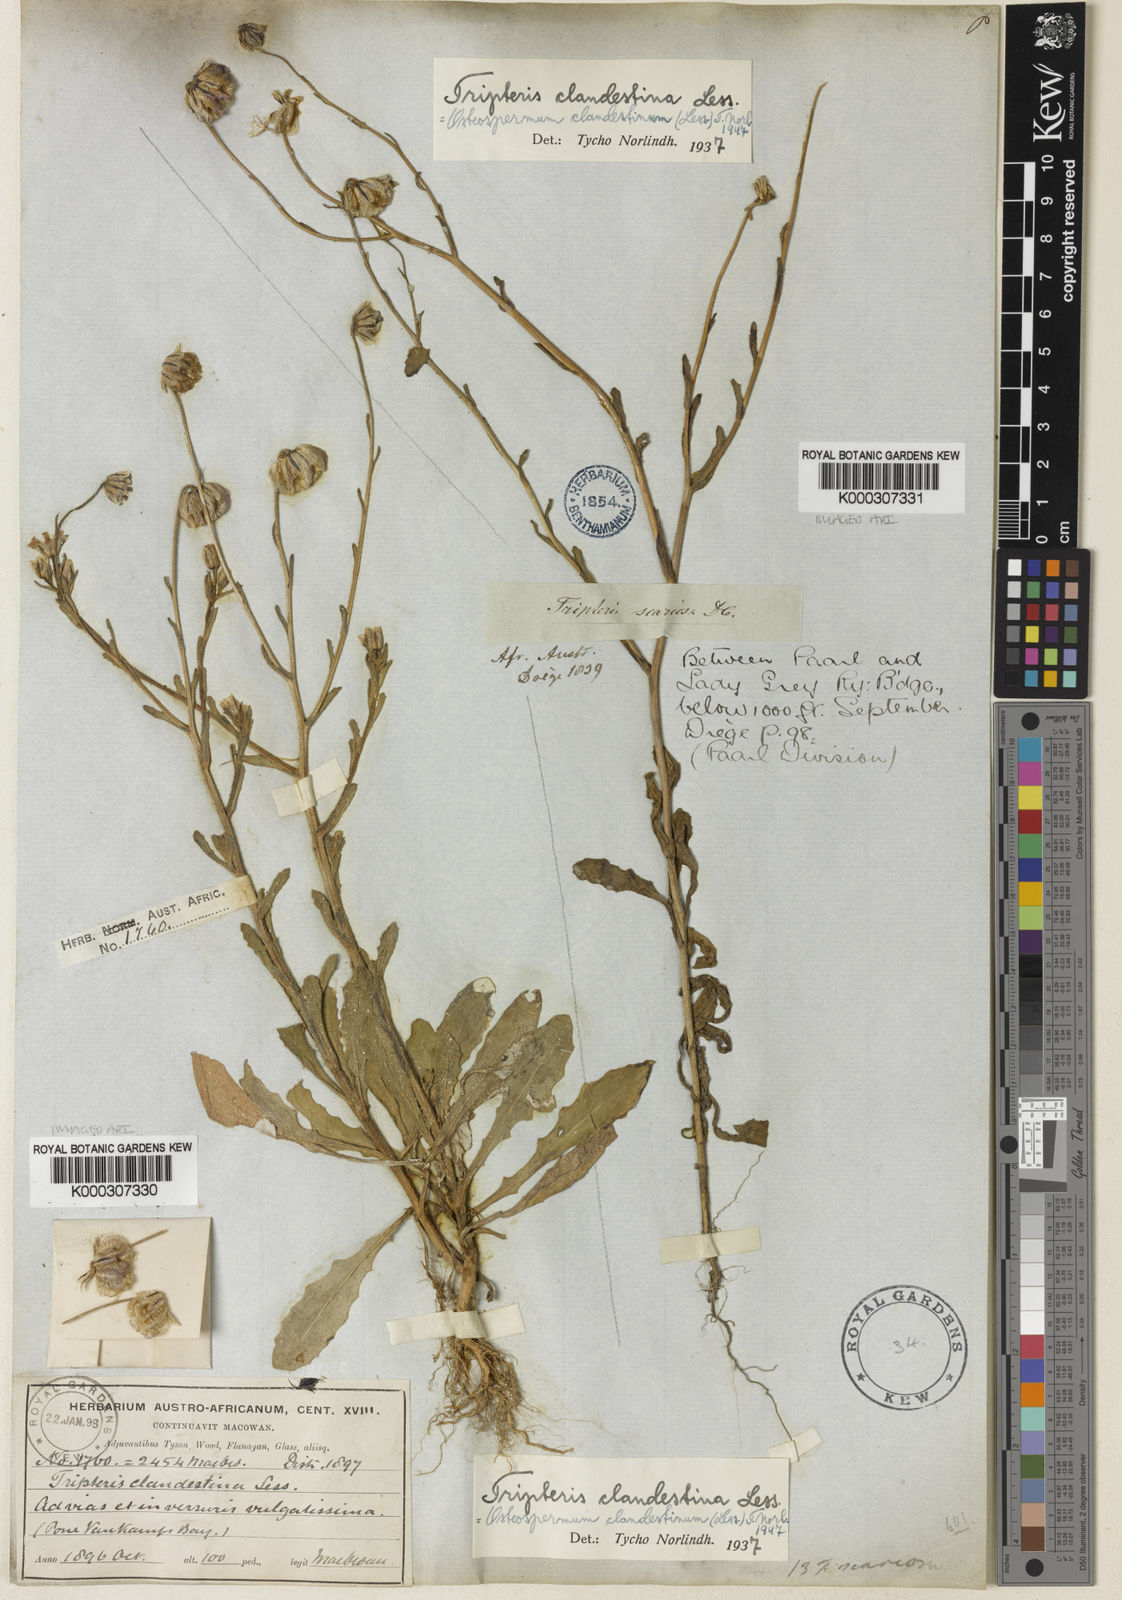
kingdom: Plantae
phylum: Tracheophyta
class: Magnoliopsida
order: Asterales
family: Asteraceae
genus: Osteospermum
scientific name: Osteospermum monstrosum
